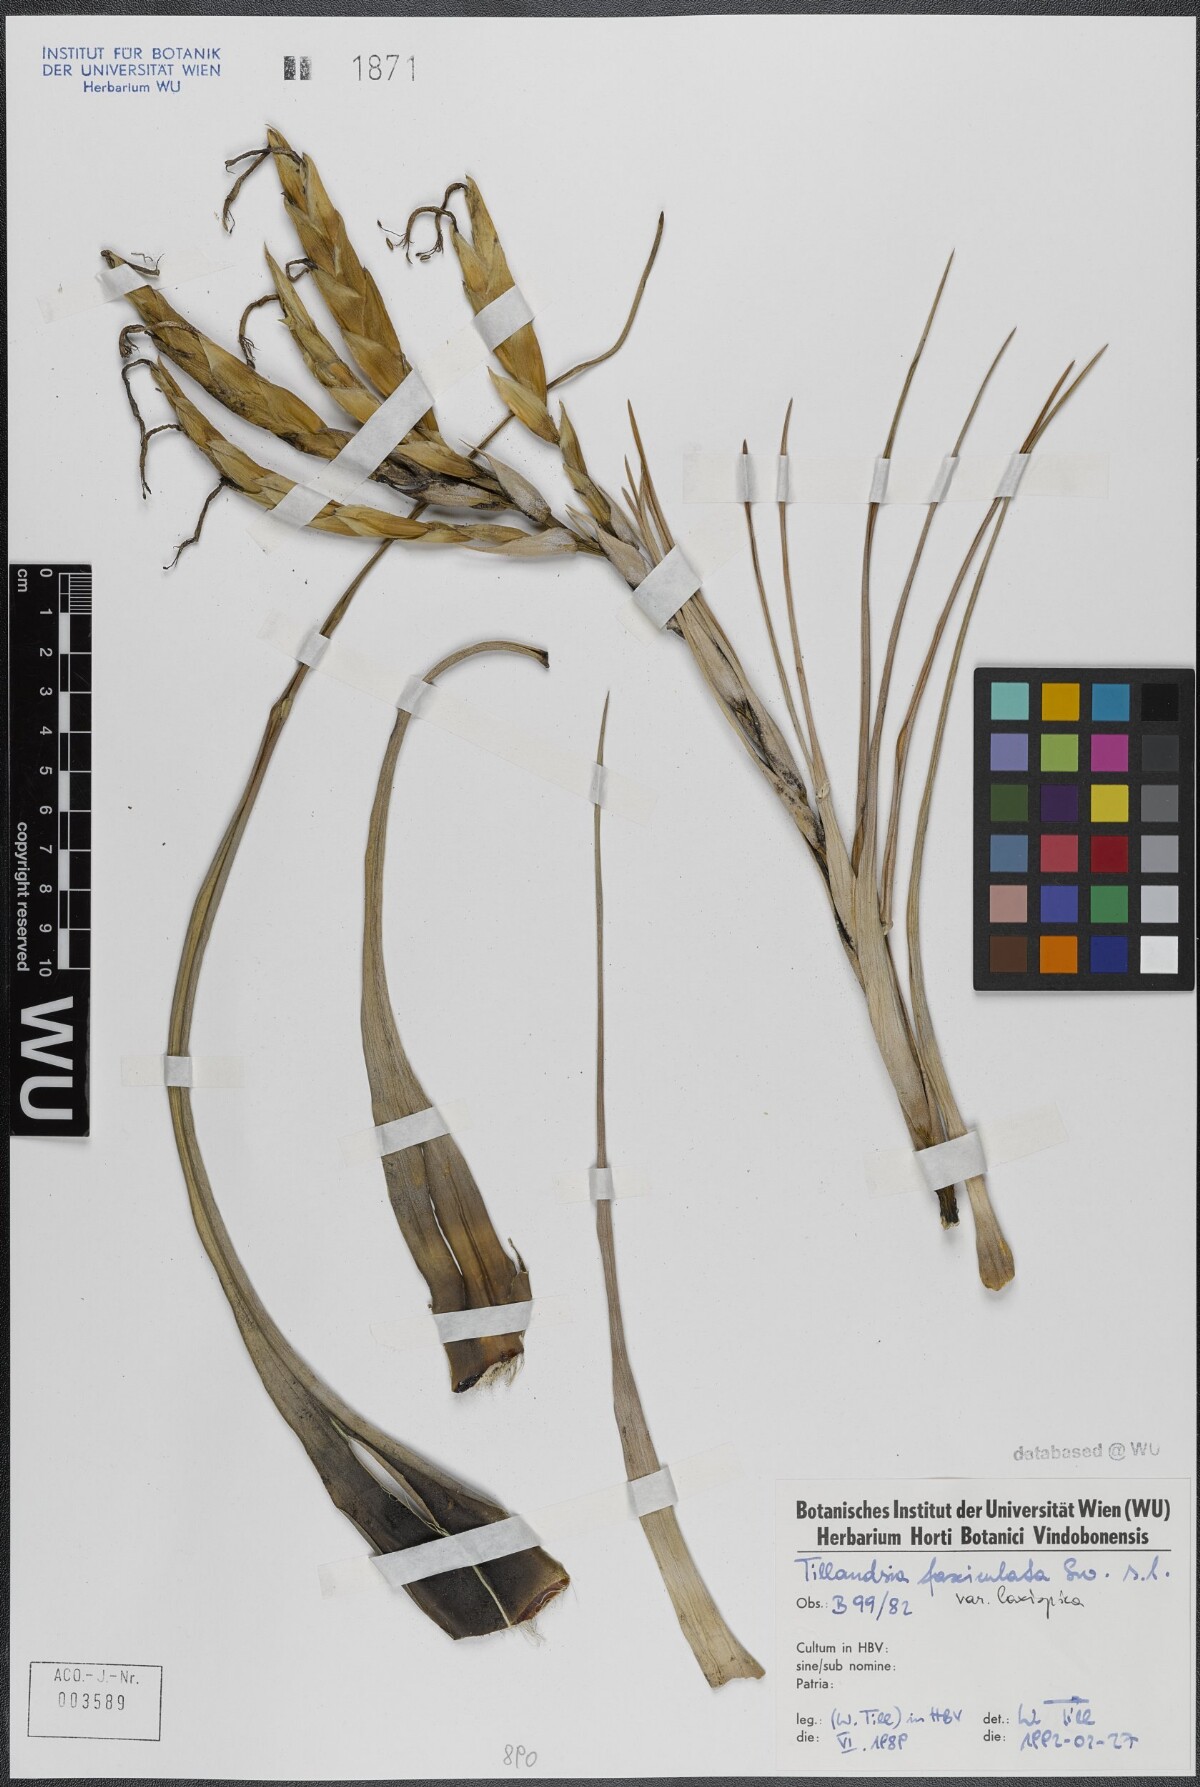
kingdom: Plantae
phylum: Tracheophyta
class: Liliopsida
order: Poales
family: Bromeliaceae
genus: Tillandsia
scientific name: Tillandsia fasciculata
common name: Giant airplant
